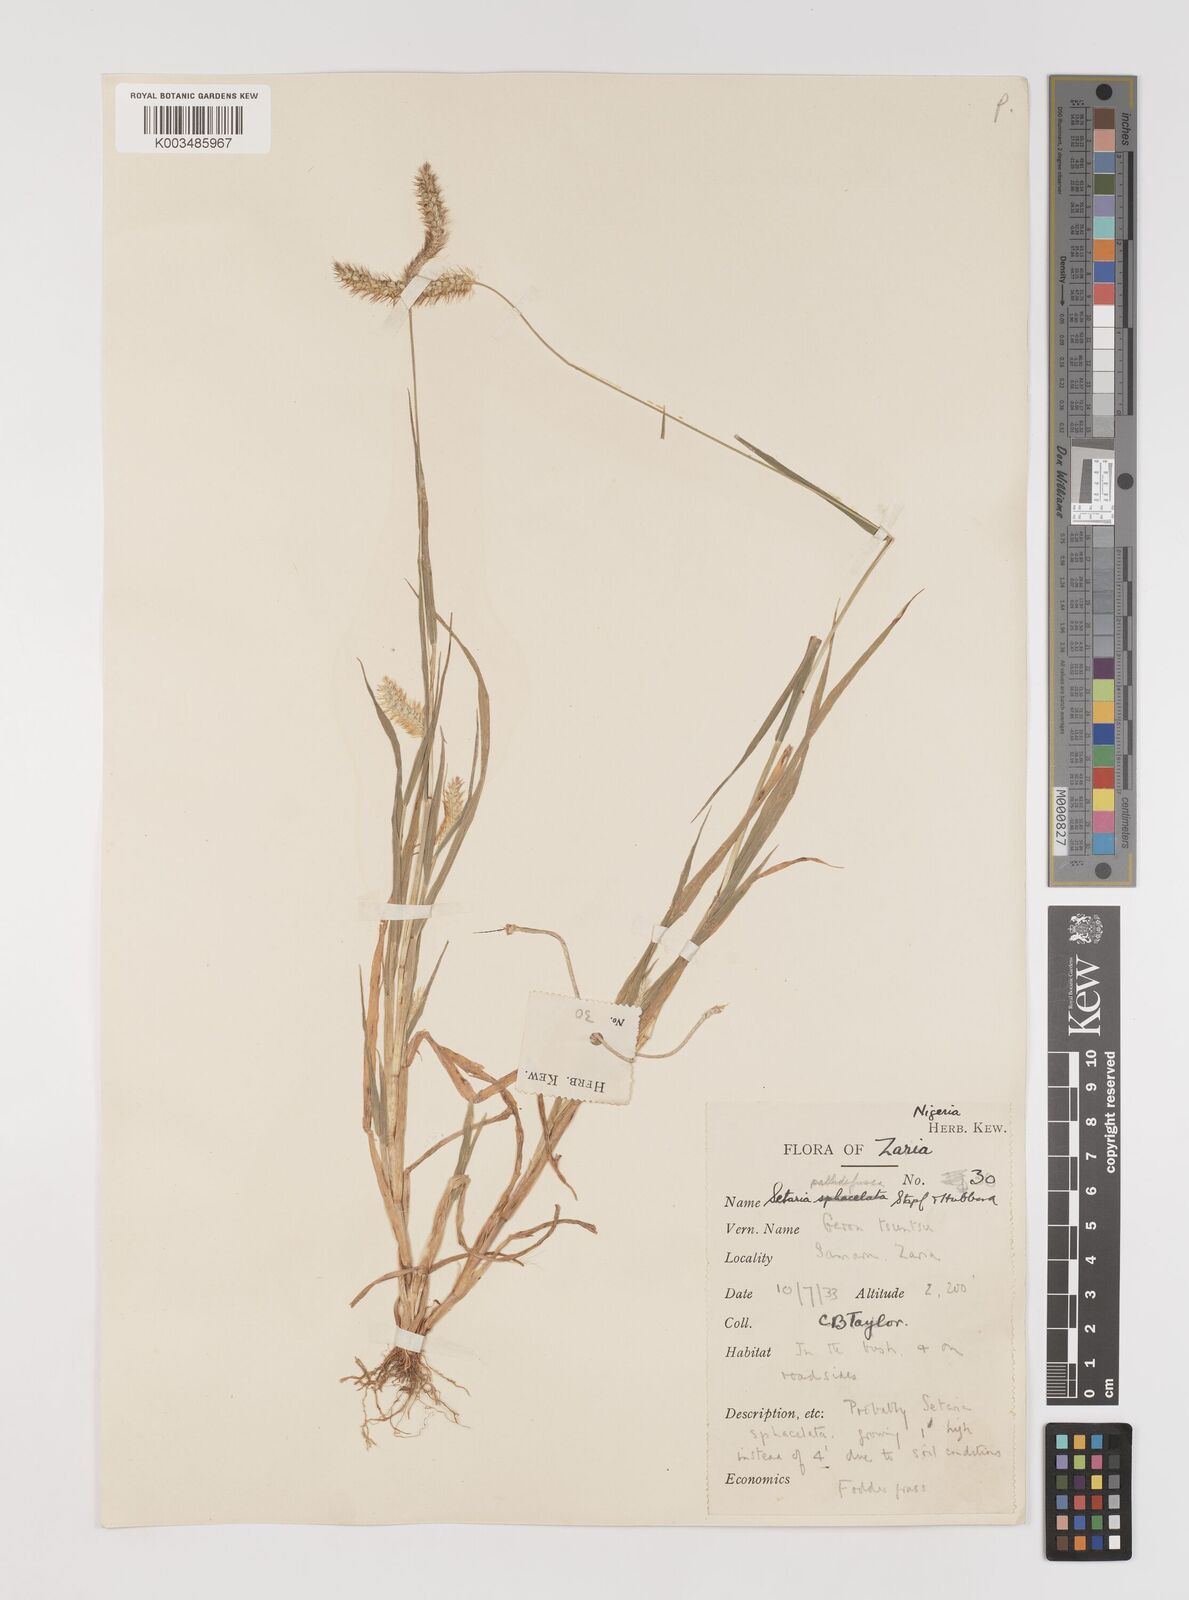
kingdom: Plantae
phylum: Tracheophyta
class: Liliopsida
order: Poales
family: Poaceae
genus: Setaria
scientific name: Setaria pumila
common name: Yellow bristle-grass
